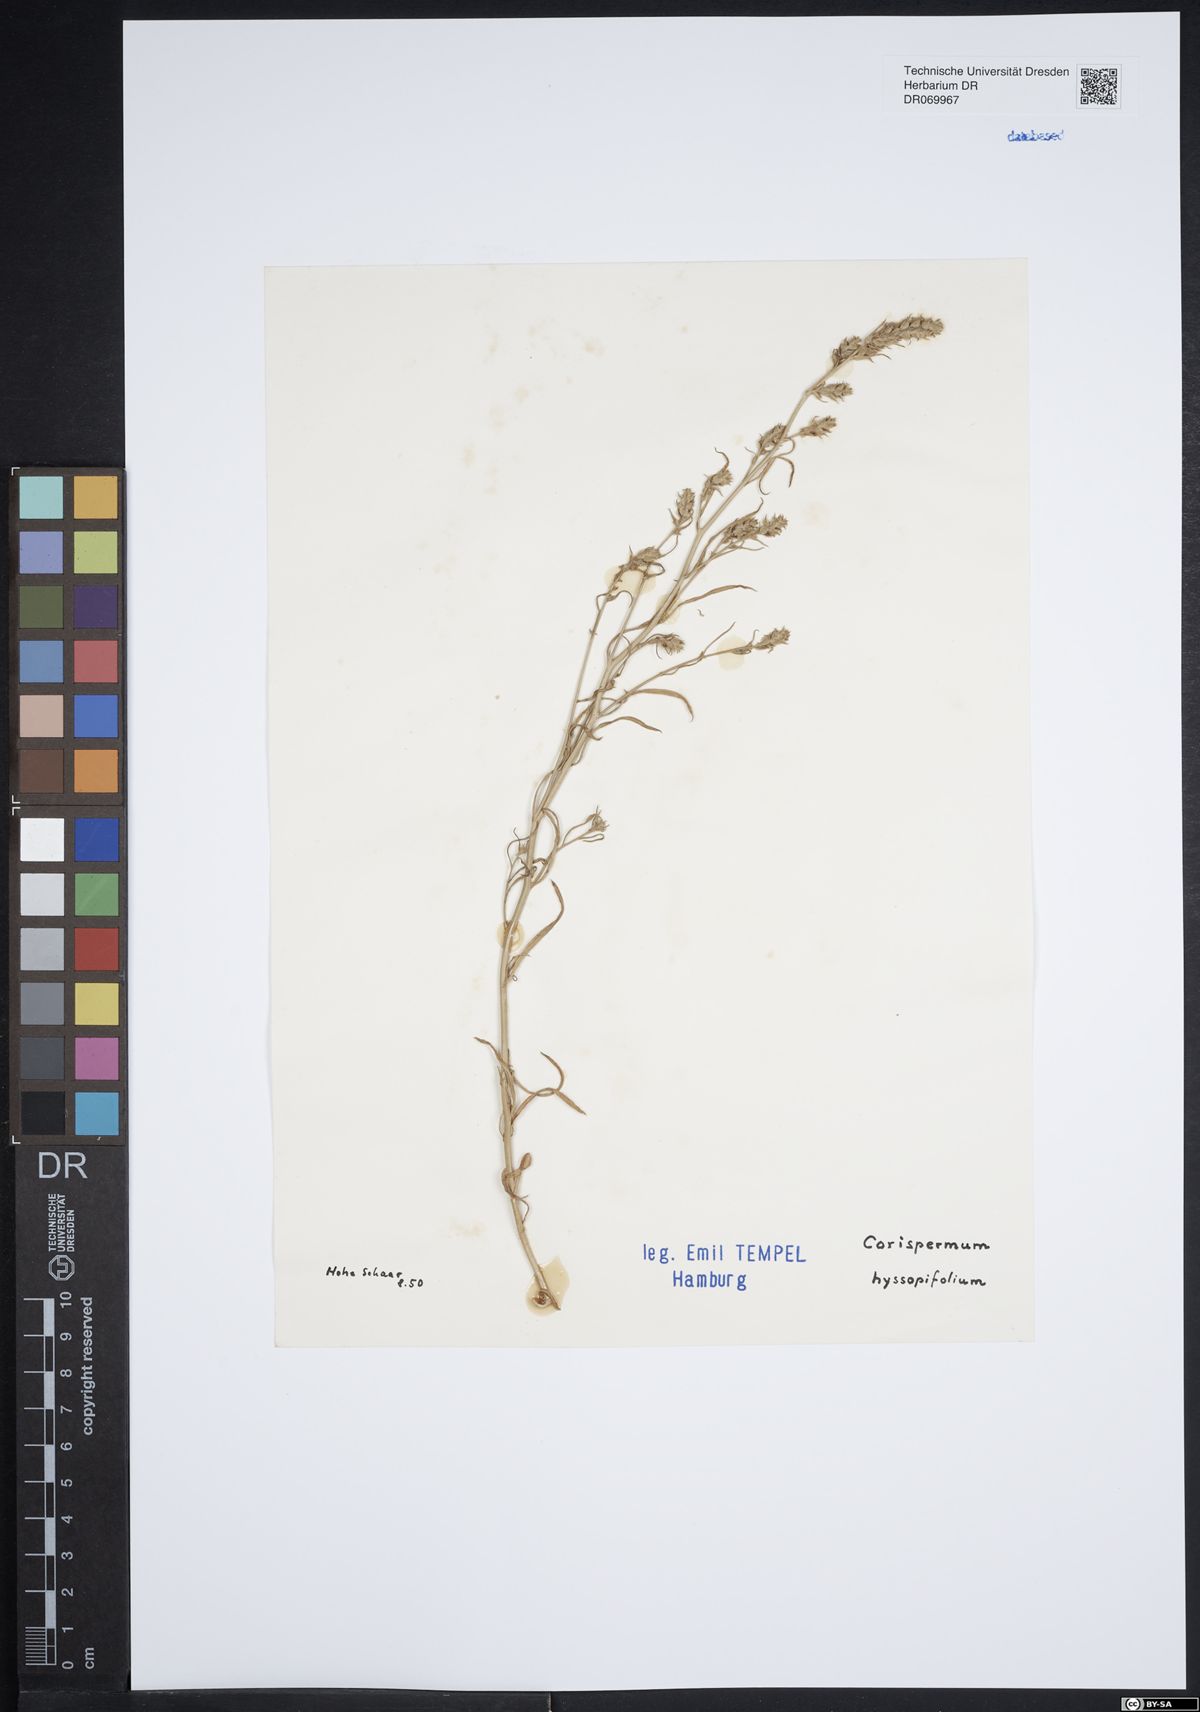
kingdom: Plantae
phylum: Tracheophyta
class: Magnoliopsida
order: Caryophyllales
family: Amaranthaceae
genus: Corispermum
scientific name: Corispermum hyssopifolium
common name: Bugseed
